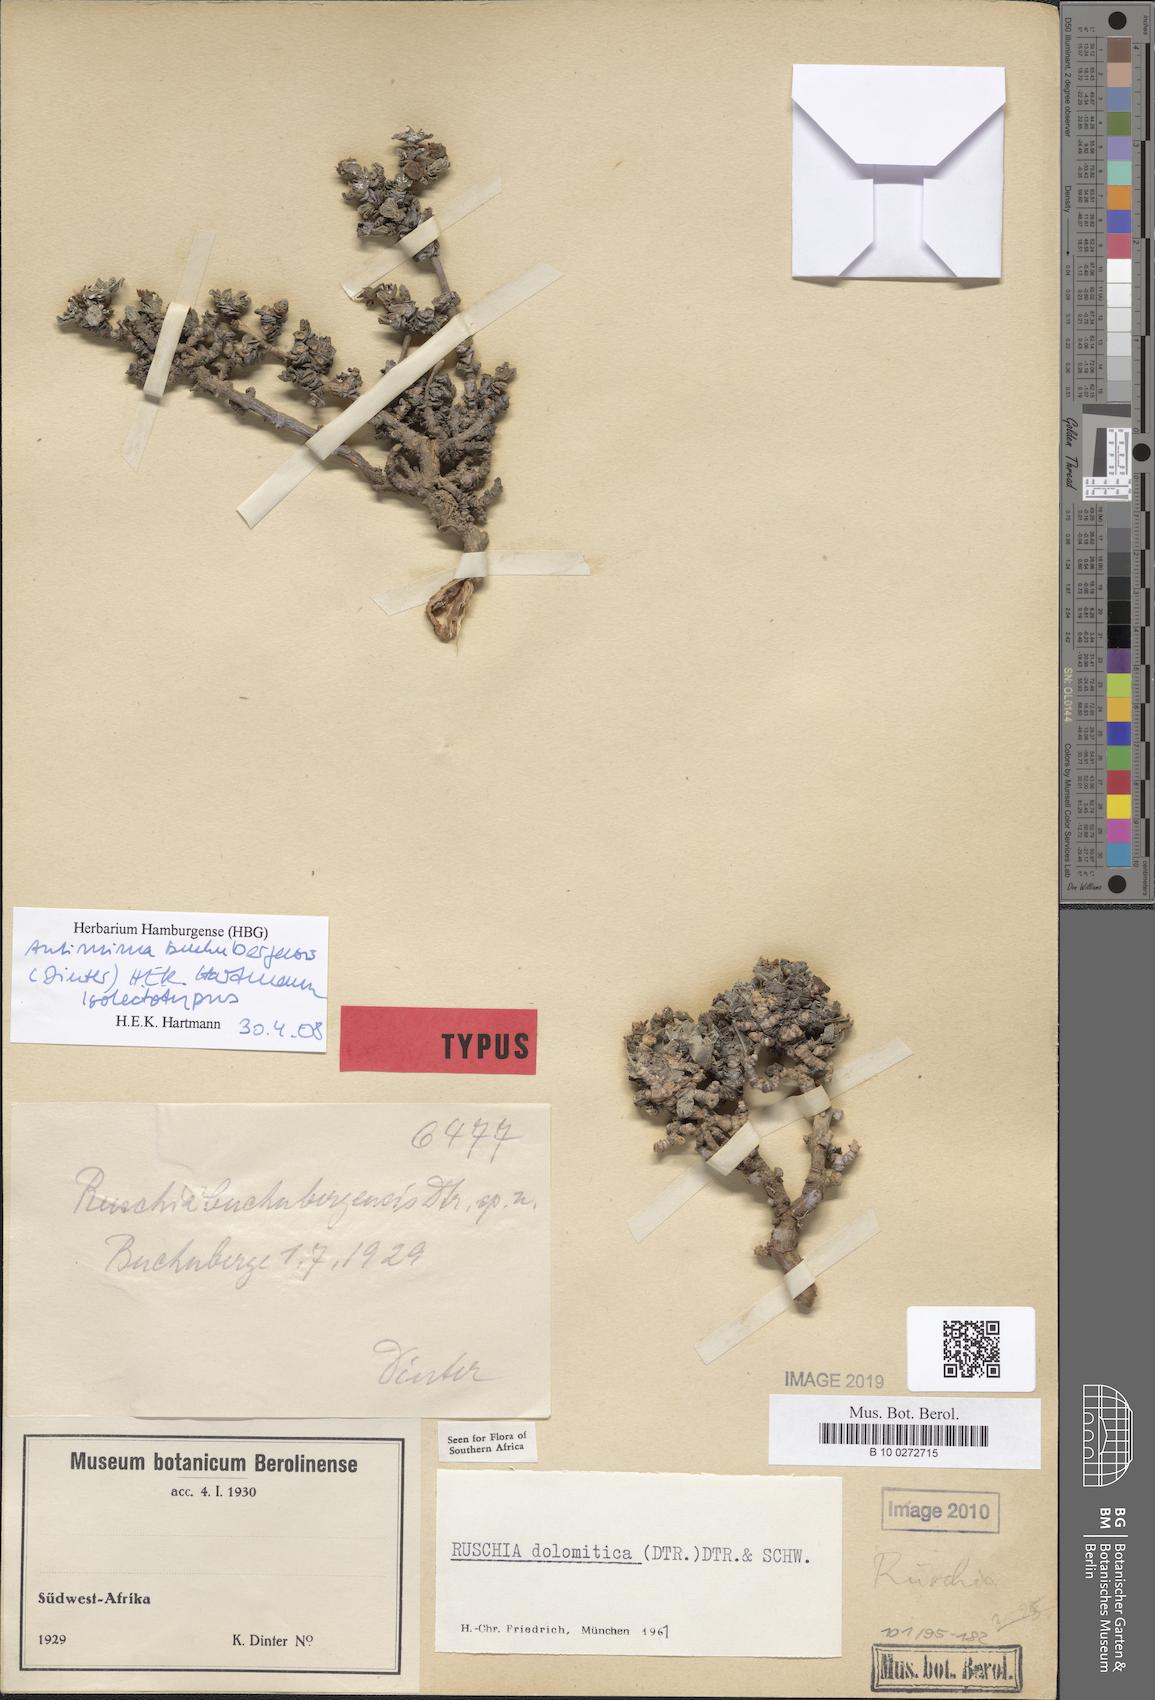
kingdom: Plantae
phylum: Tracheophyta
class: Magnoliopsida
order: Caryophyllales
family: Aizoaceae
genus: Antimima
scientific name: Antimima buchubergensis
